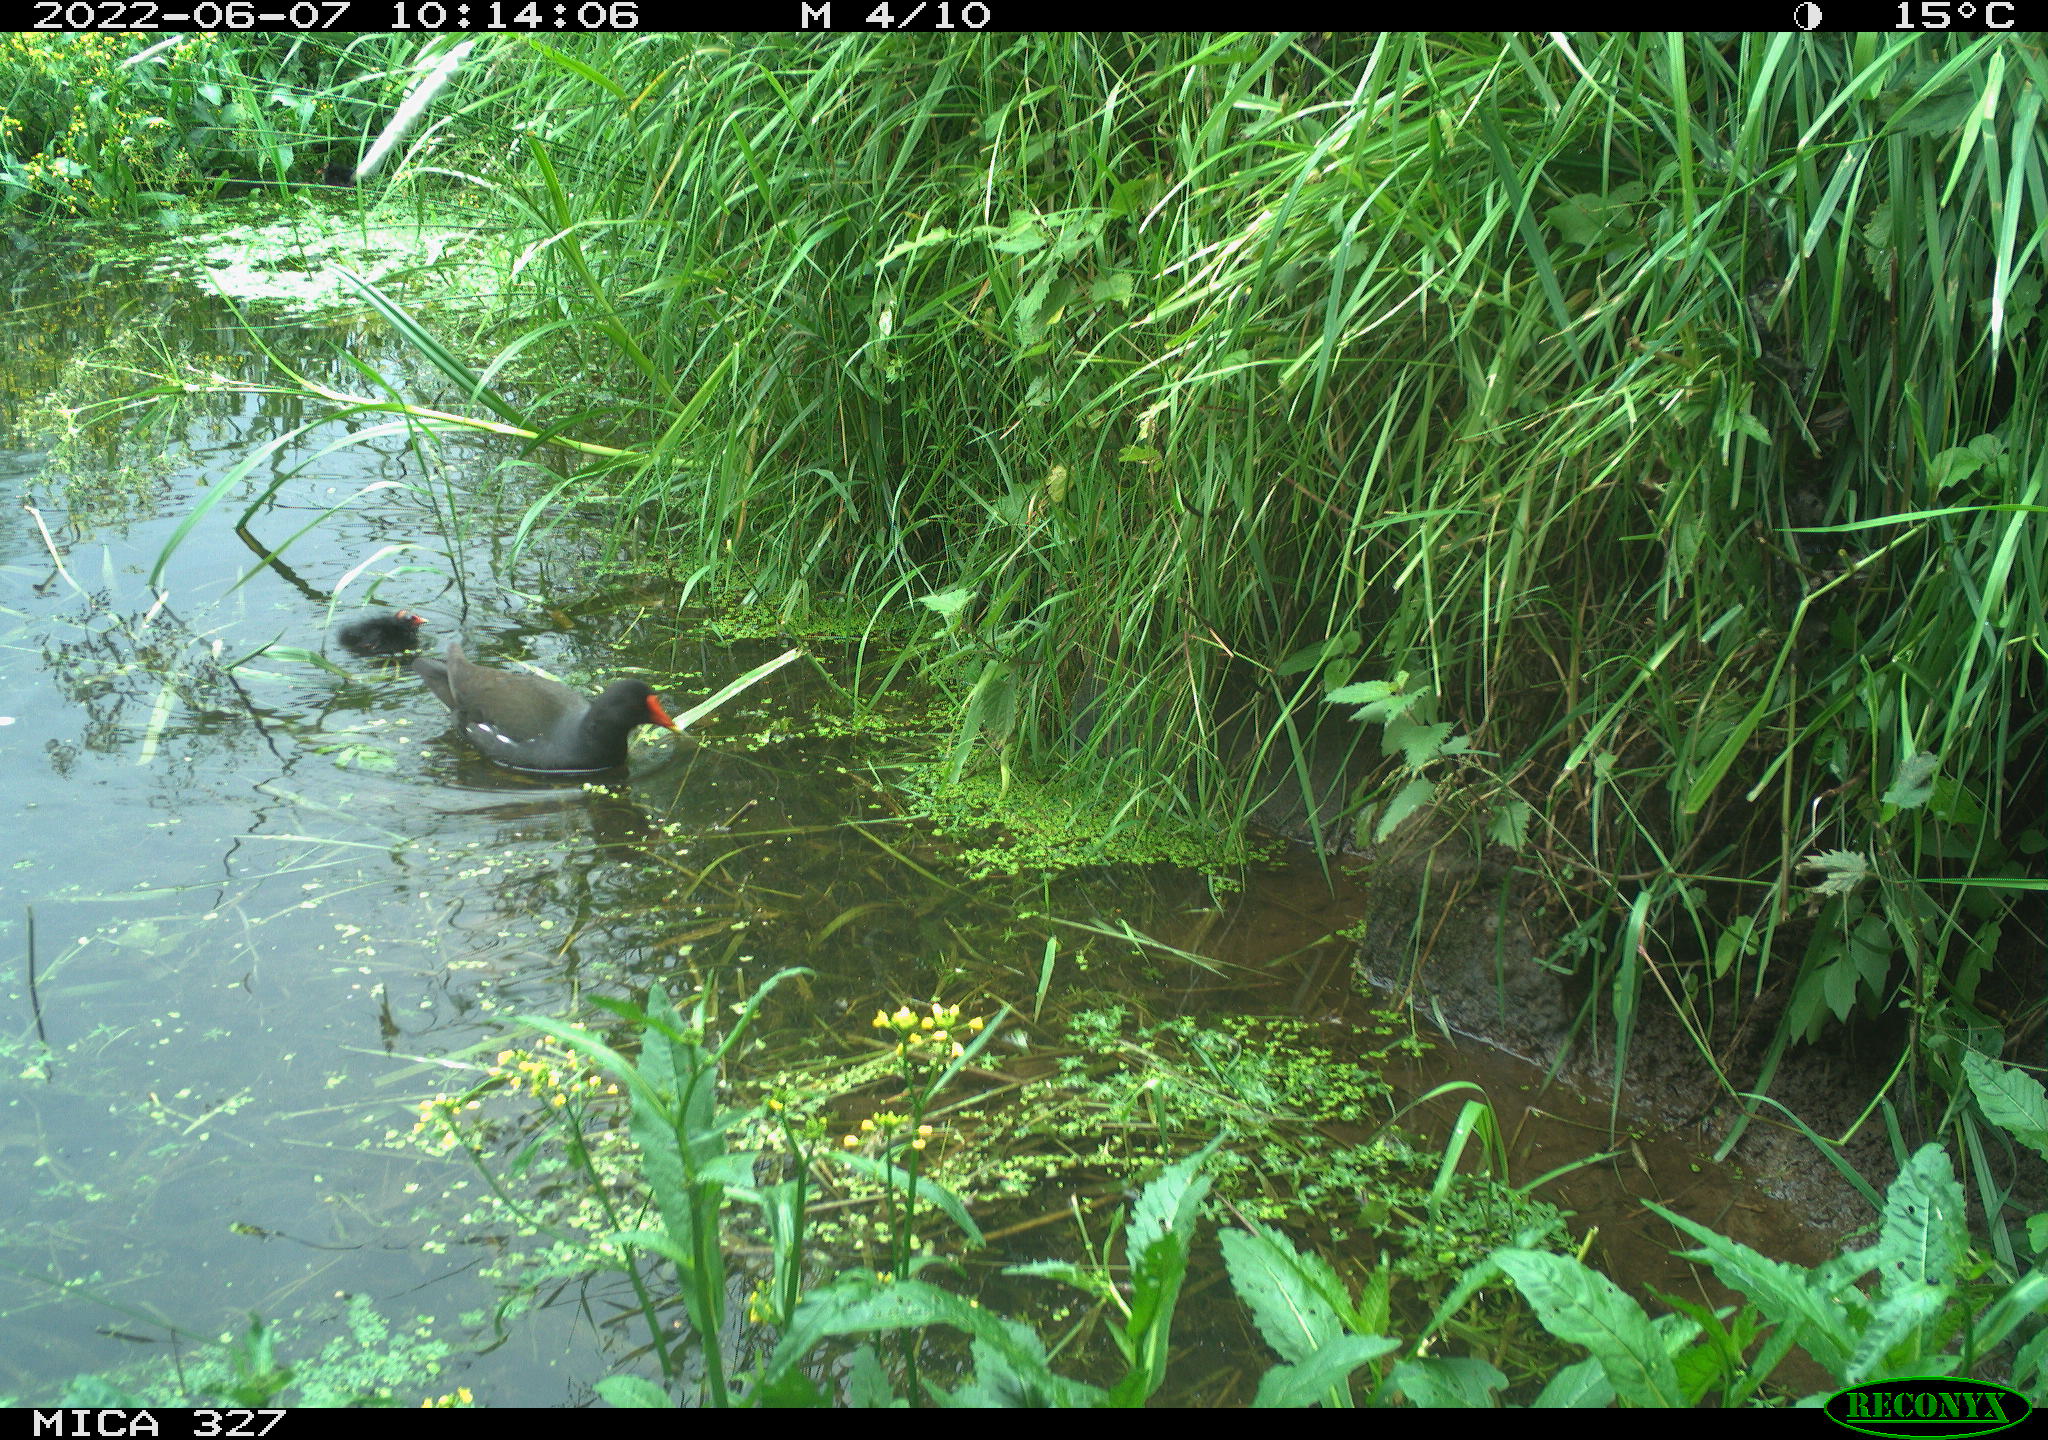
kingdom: Animalia
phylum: Chordata
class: Aves
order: Gruiformes
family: Rallidae
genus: Gallinula
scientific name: Gallinula chloropus
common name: Common moorhen
